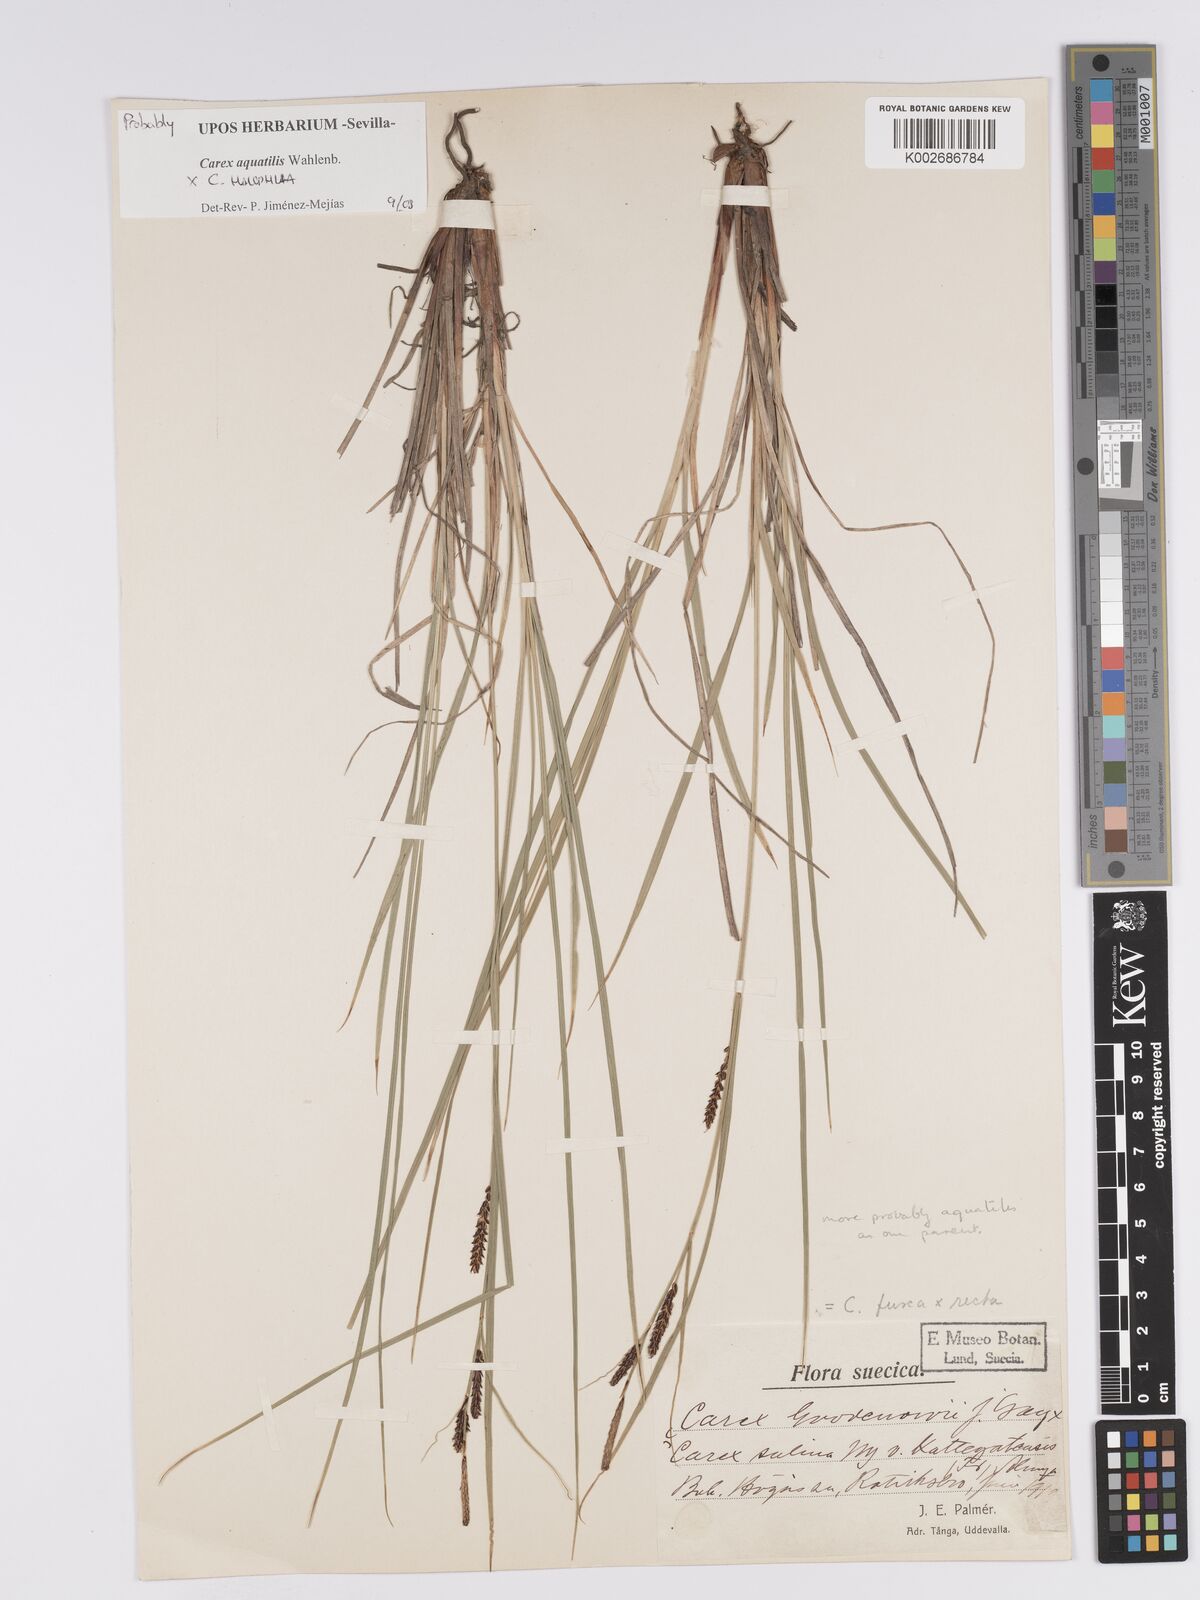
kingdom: Plantae
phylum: Tracheophyta
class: Liliopsida
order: Poales
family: Cyperaceae
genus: Carex
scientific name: Carex aquatilis
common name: Water sedge
